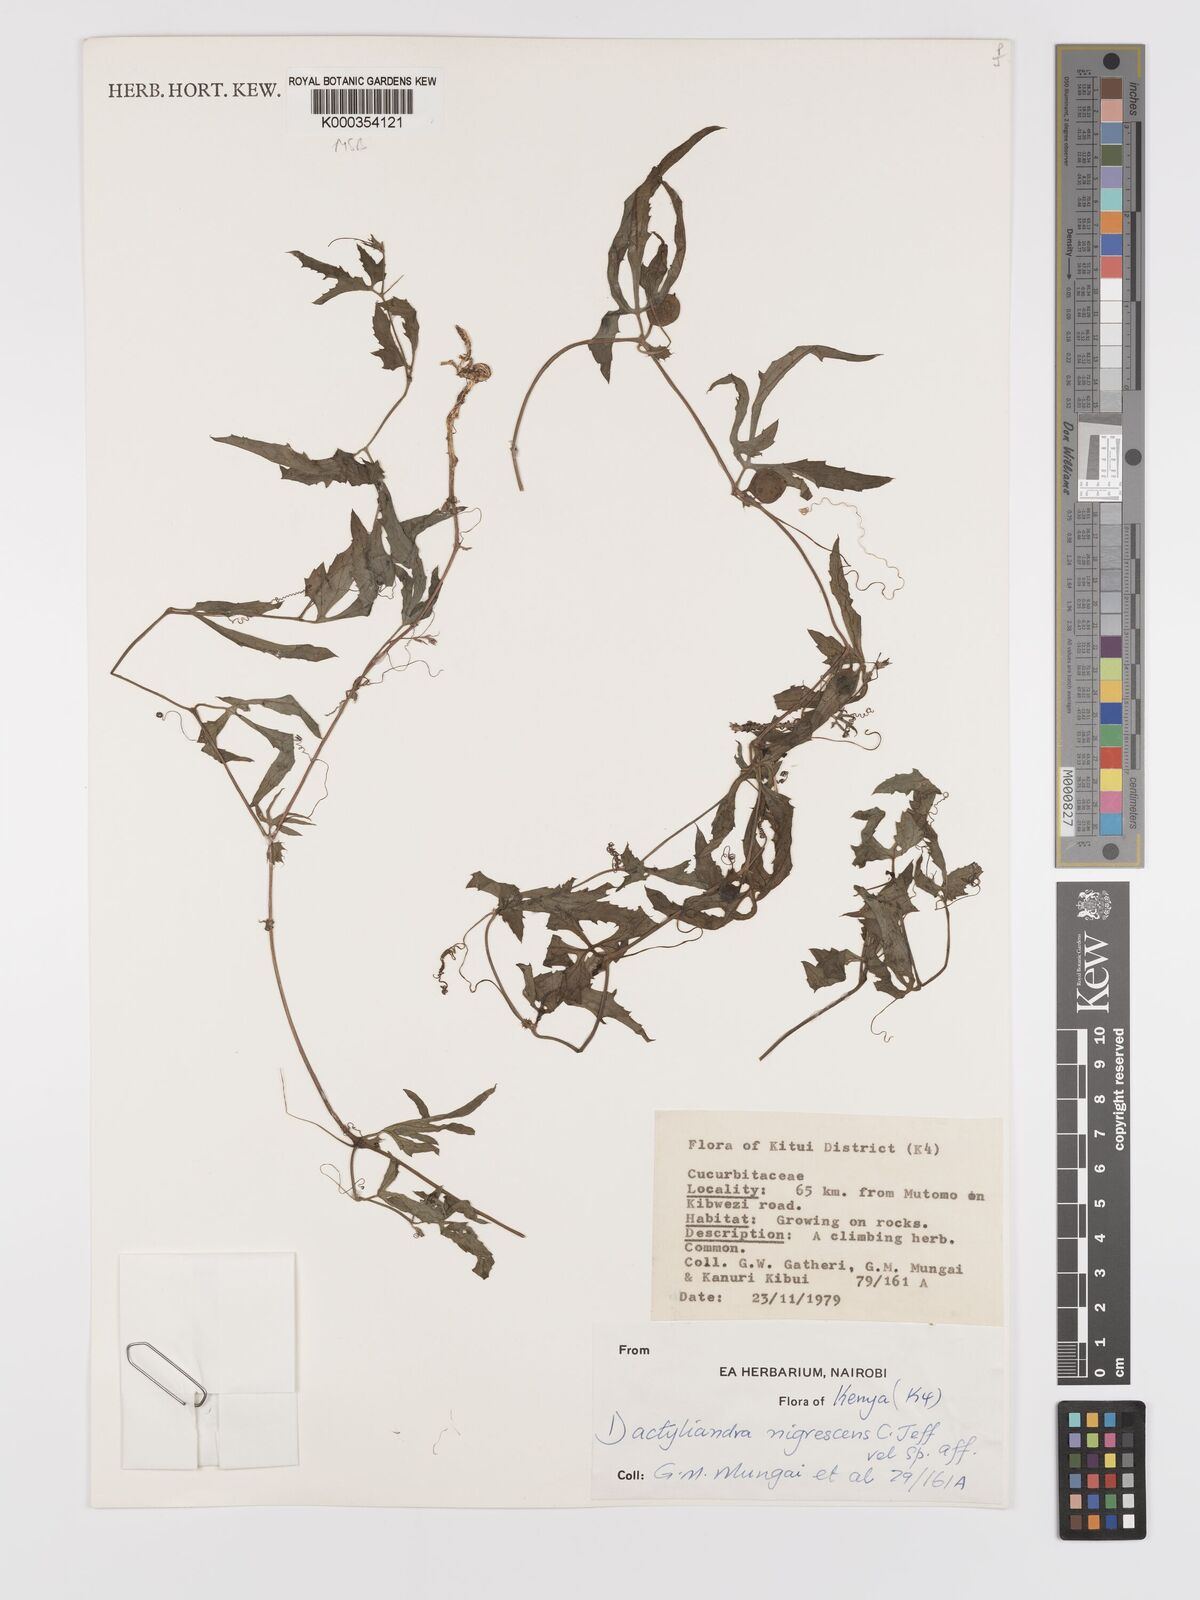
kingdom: Plantae
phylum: Tracheophyta
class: Magnoliopsida
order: Cucurbitales
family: Cucurbitaceae
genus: Trochomeria
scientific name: Trochomeria nigrescens
